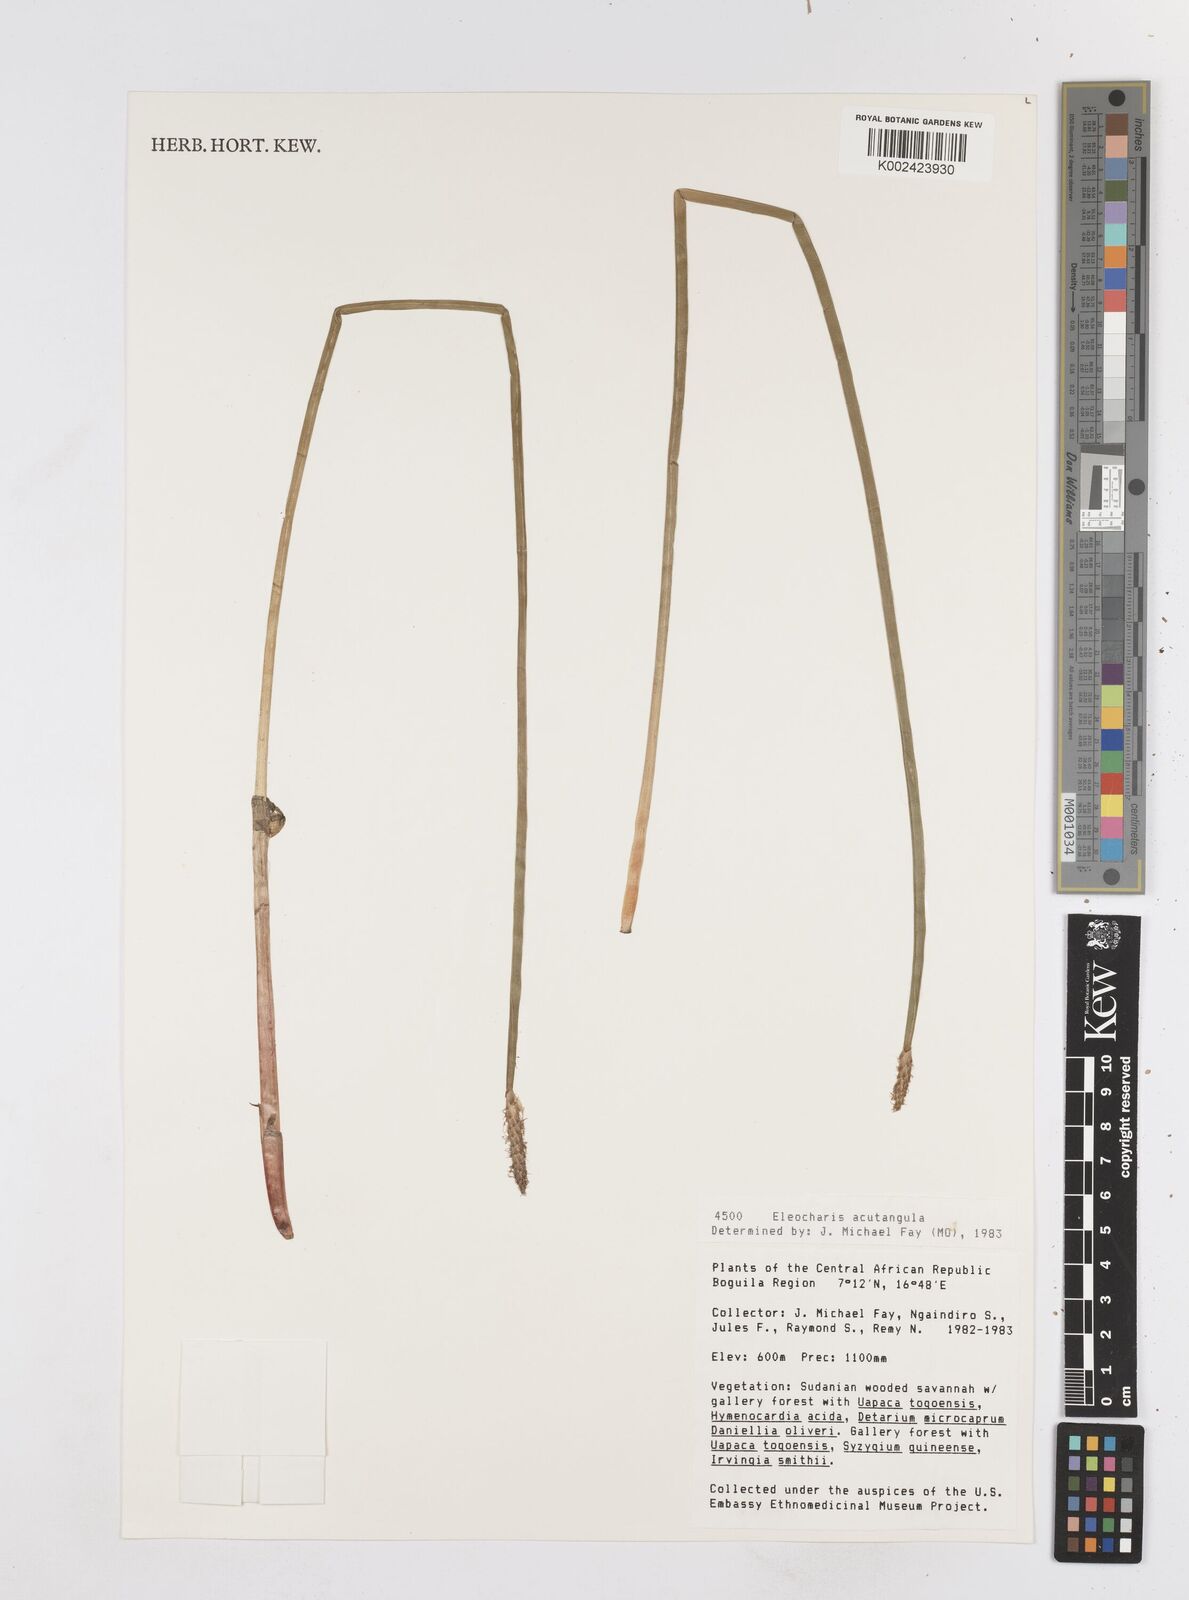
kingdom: Plantae
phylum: Tracheophyta
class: Liliopsida
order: Poales
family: Cyperaceae
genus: Eleocharis
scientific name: Eleocharis acutangula
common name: Acute spikerush
